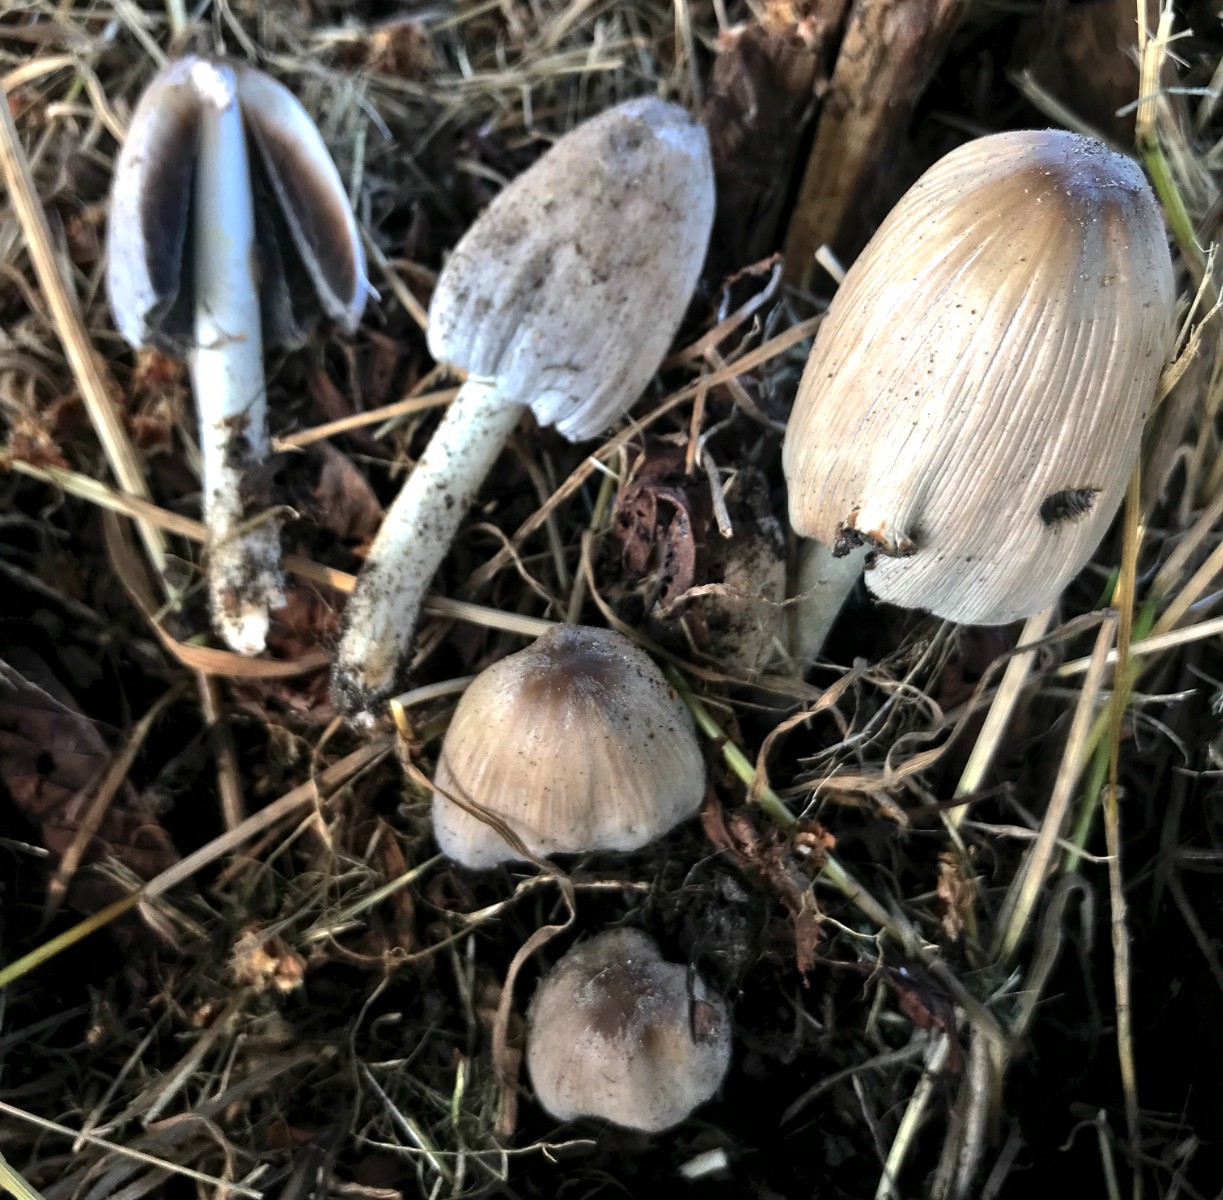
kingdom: Fungi
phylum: Basidiomycota
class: Agaricomycetes
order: Agaricales
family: Psathyrellaceae
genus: Coprinopsis
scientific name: Coprinopsis atramentaria
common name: almindelig blækhat
